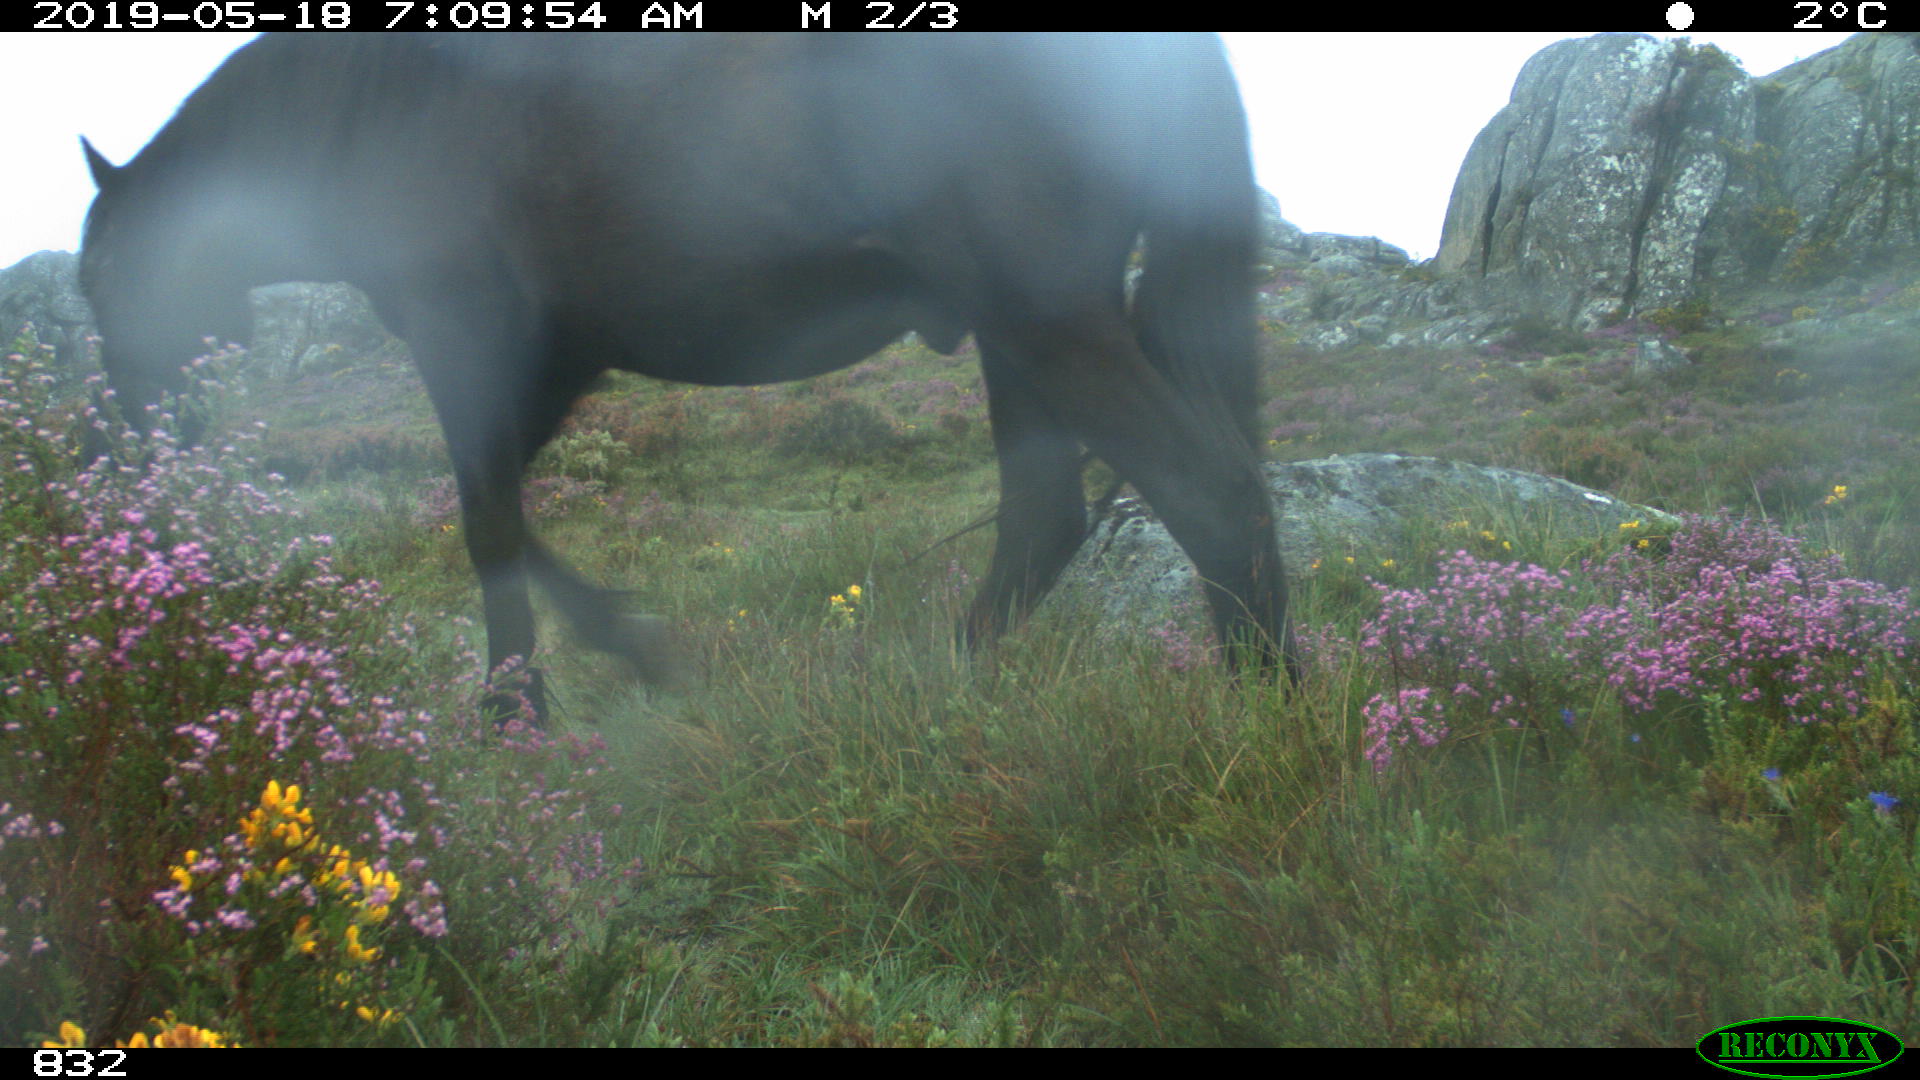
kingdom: Animalia
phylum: Chordata
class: Mammalia
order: Perissodactyla
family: Equidae
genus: Equus
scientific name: Equus caballus
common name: Horse
